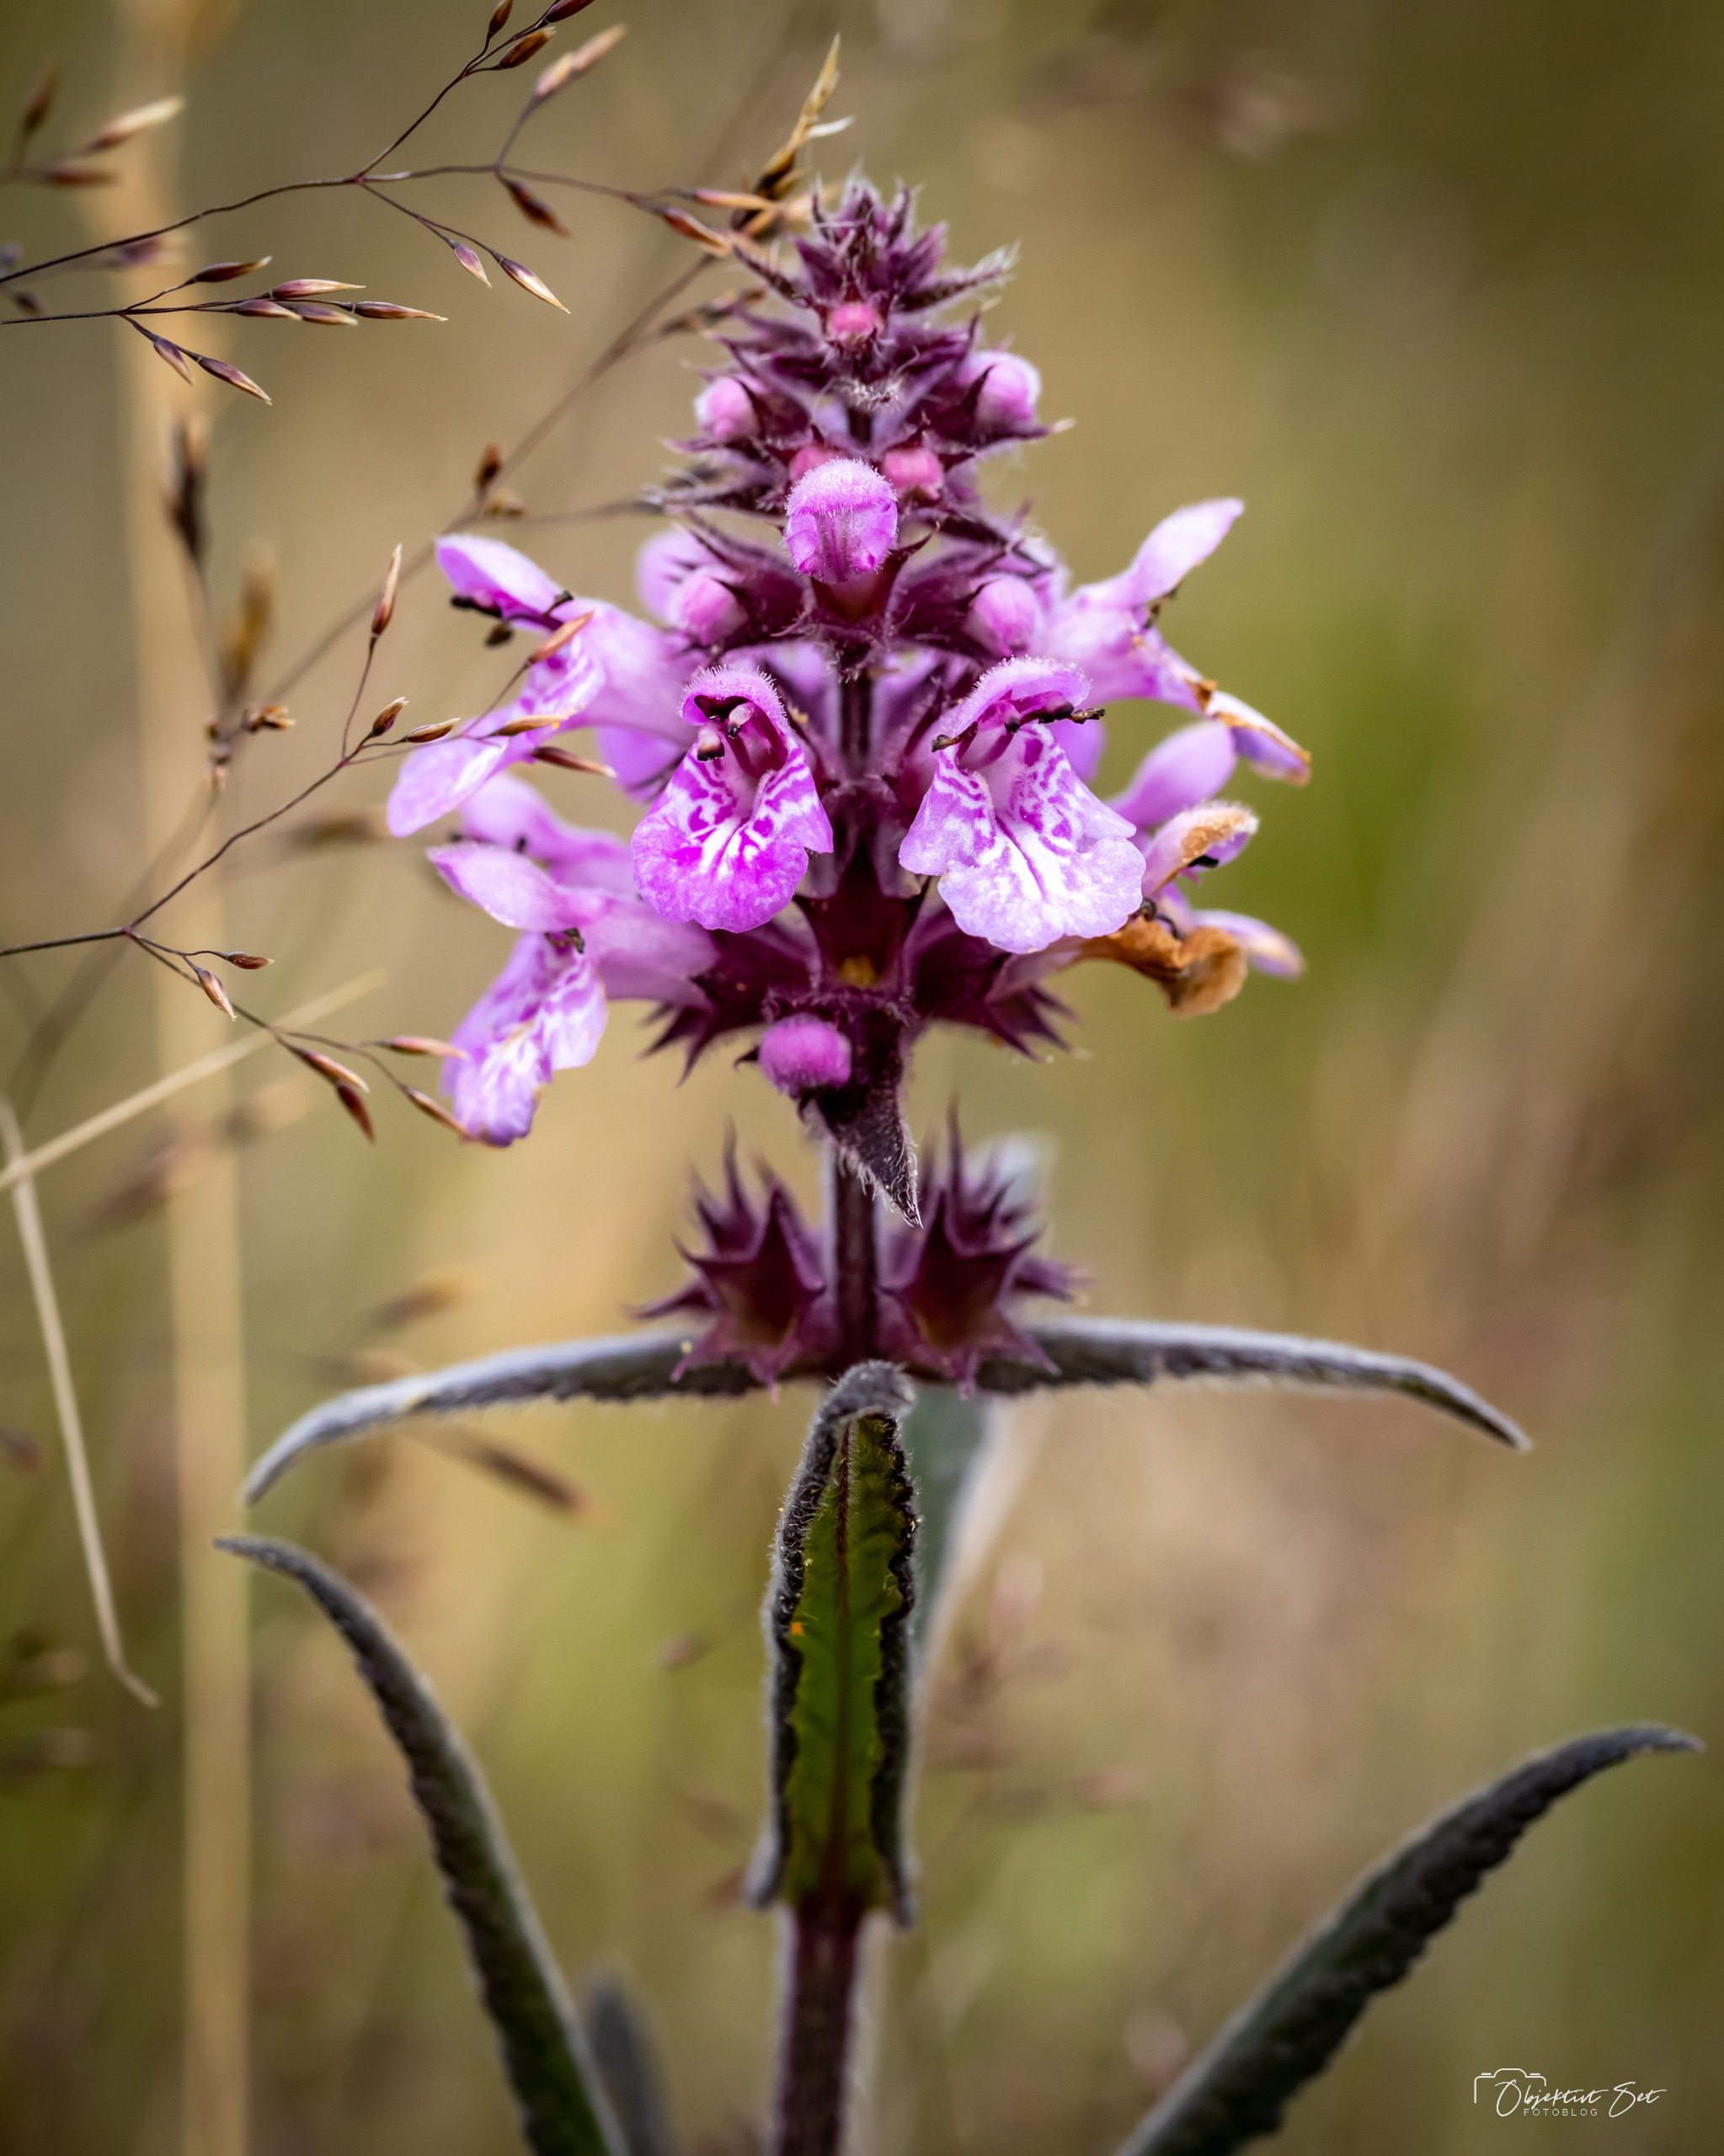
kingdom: Plantae
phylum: Tracheophyta
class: Magnoliopsida
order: Lamiales
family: Lamiaceae
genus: Stachys
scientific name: Stachys palustris
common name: Kær-galtetand
